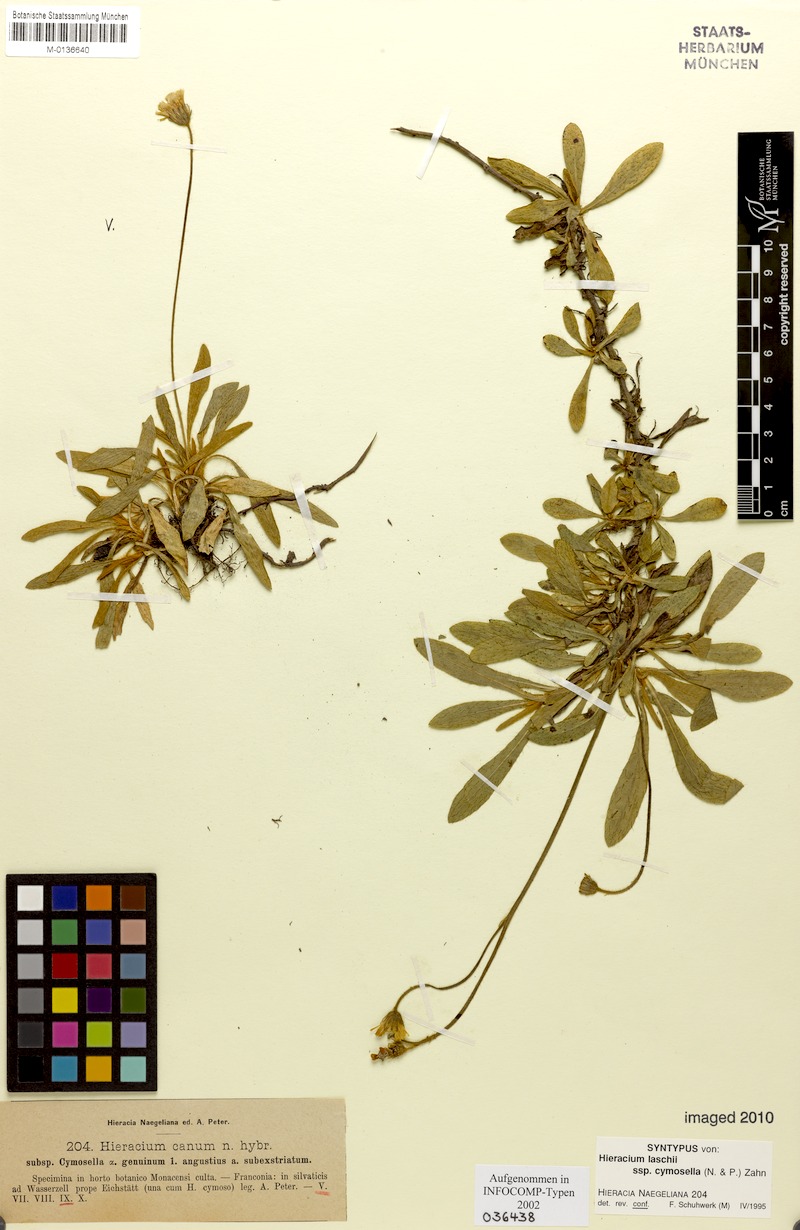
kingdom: Plantae
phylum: Tracheophyta
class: Magnoliopsida
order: Asterales
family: Asteraceae
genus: Pilosella
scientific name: Pilosella acutifolia
